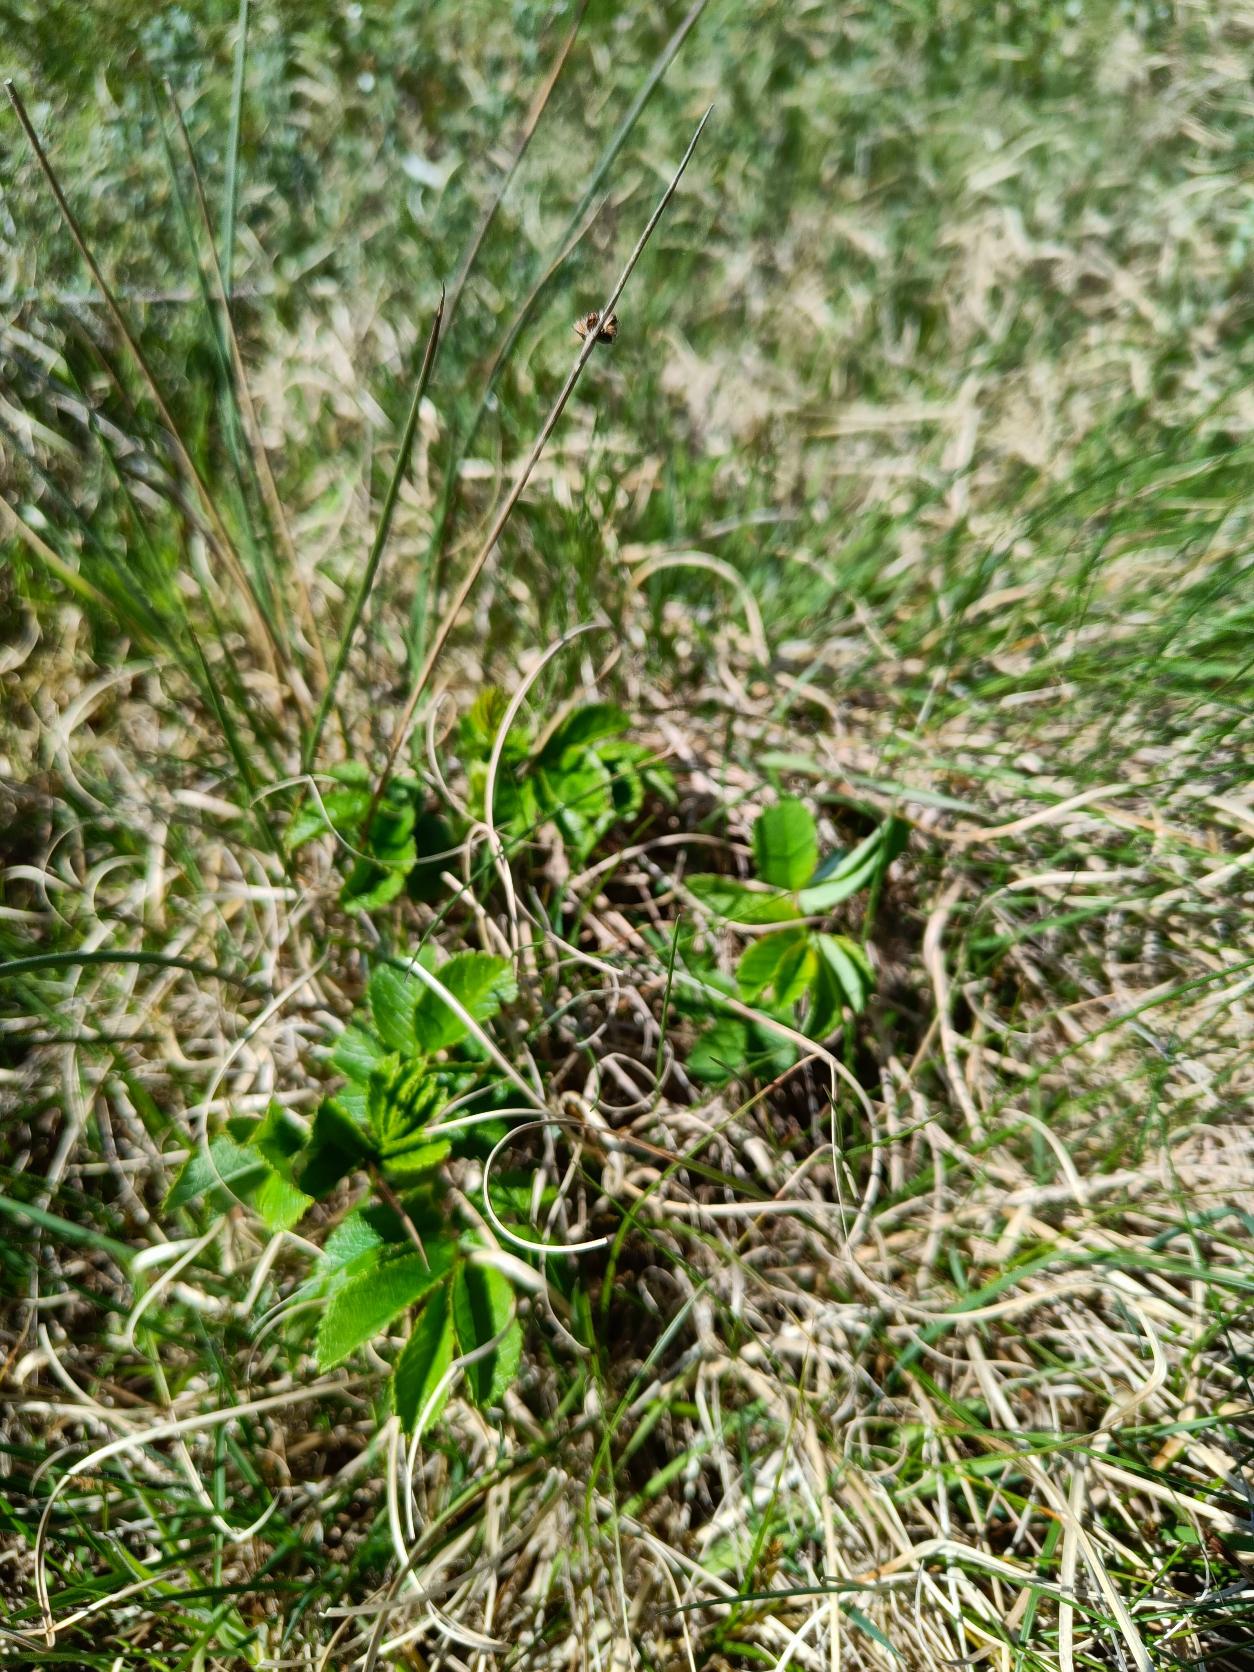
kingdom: Plantae
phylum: Tracheophyta
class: Magnoliopsida
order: Rosales
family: Rosaceae
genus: Rosa
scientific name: Rosa rugosa
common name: Rynket rose
